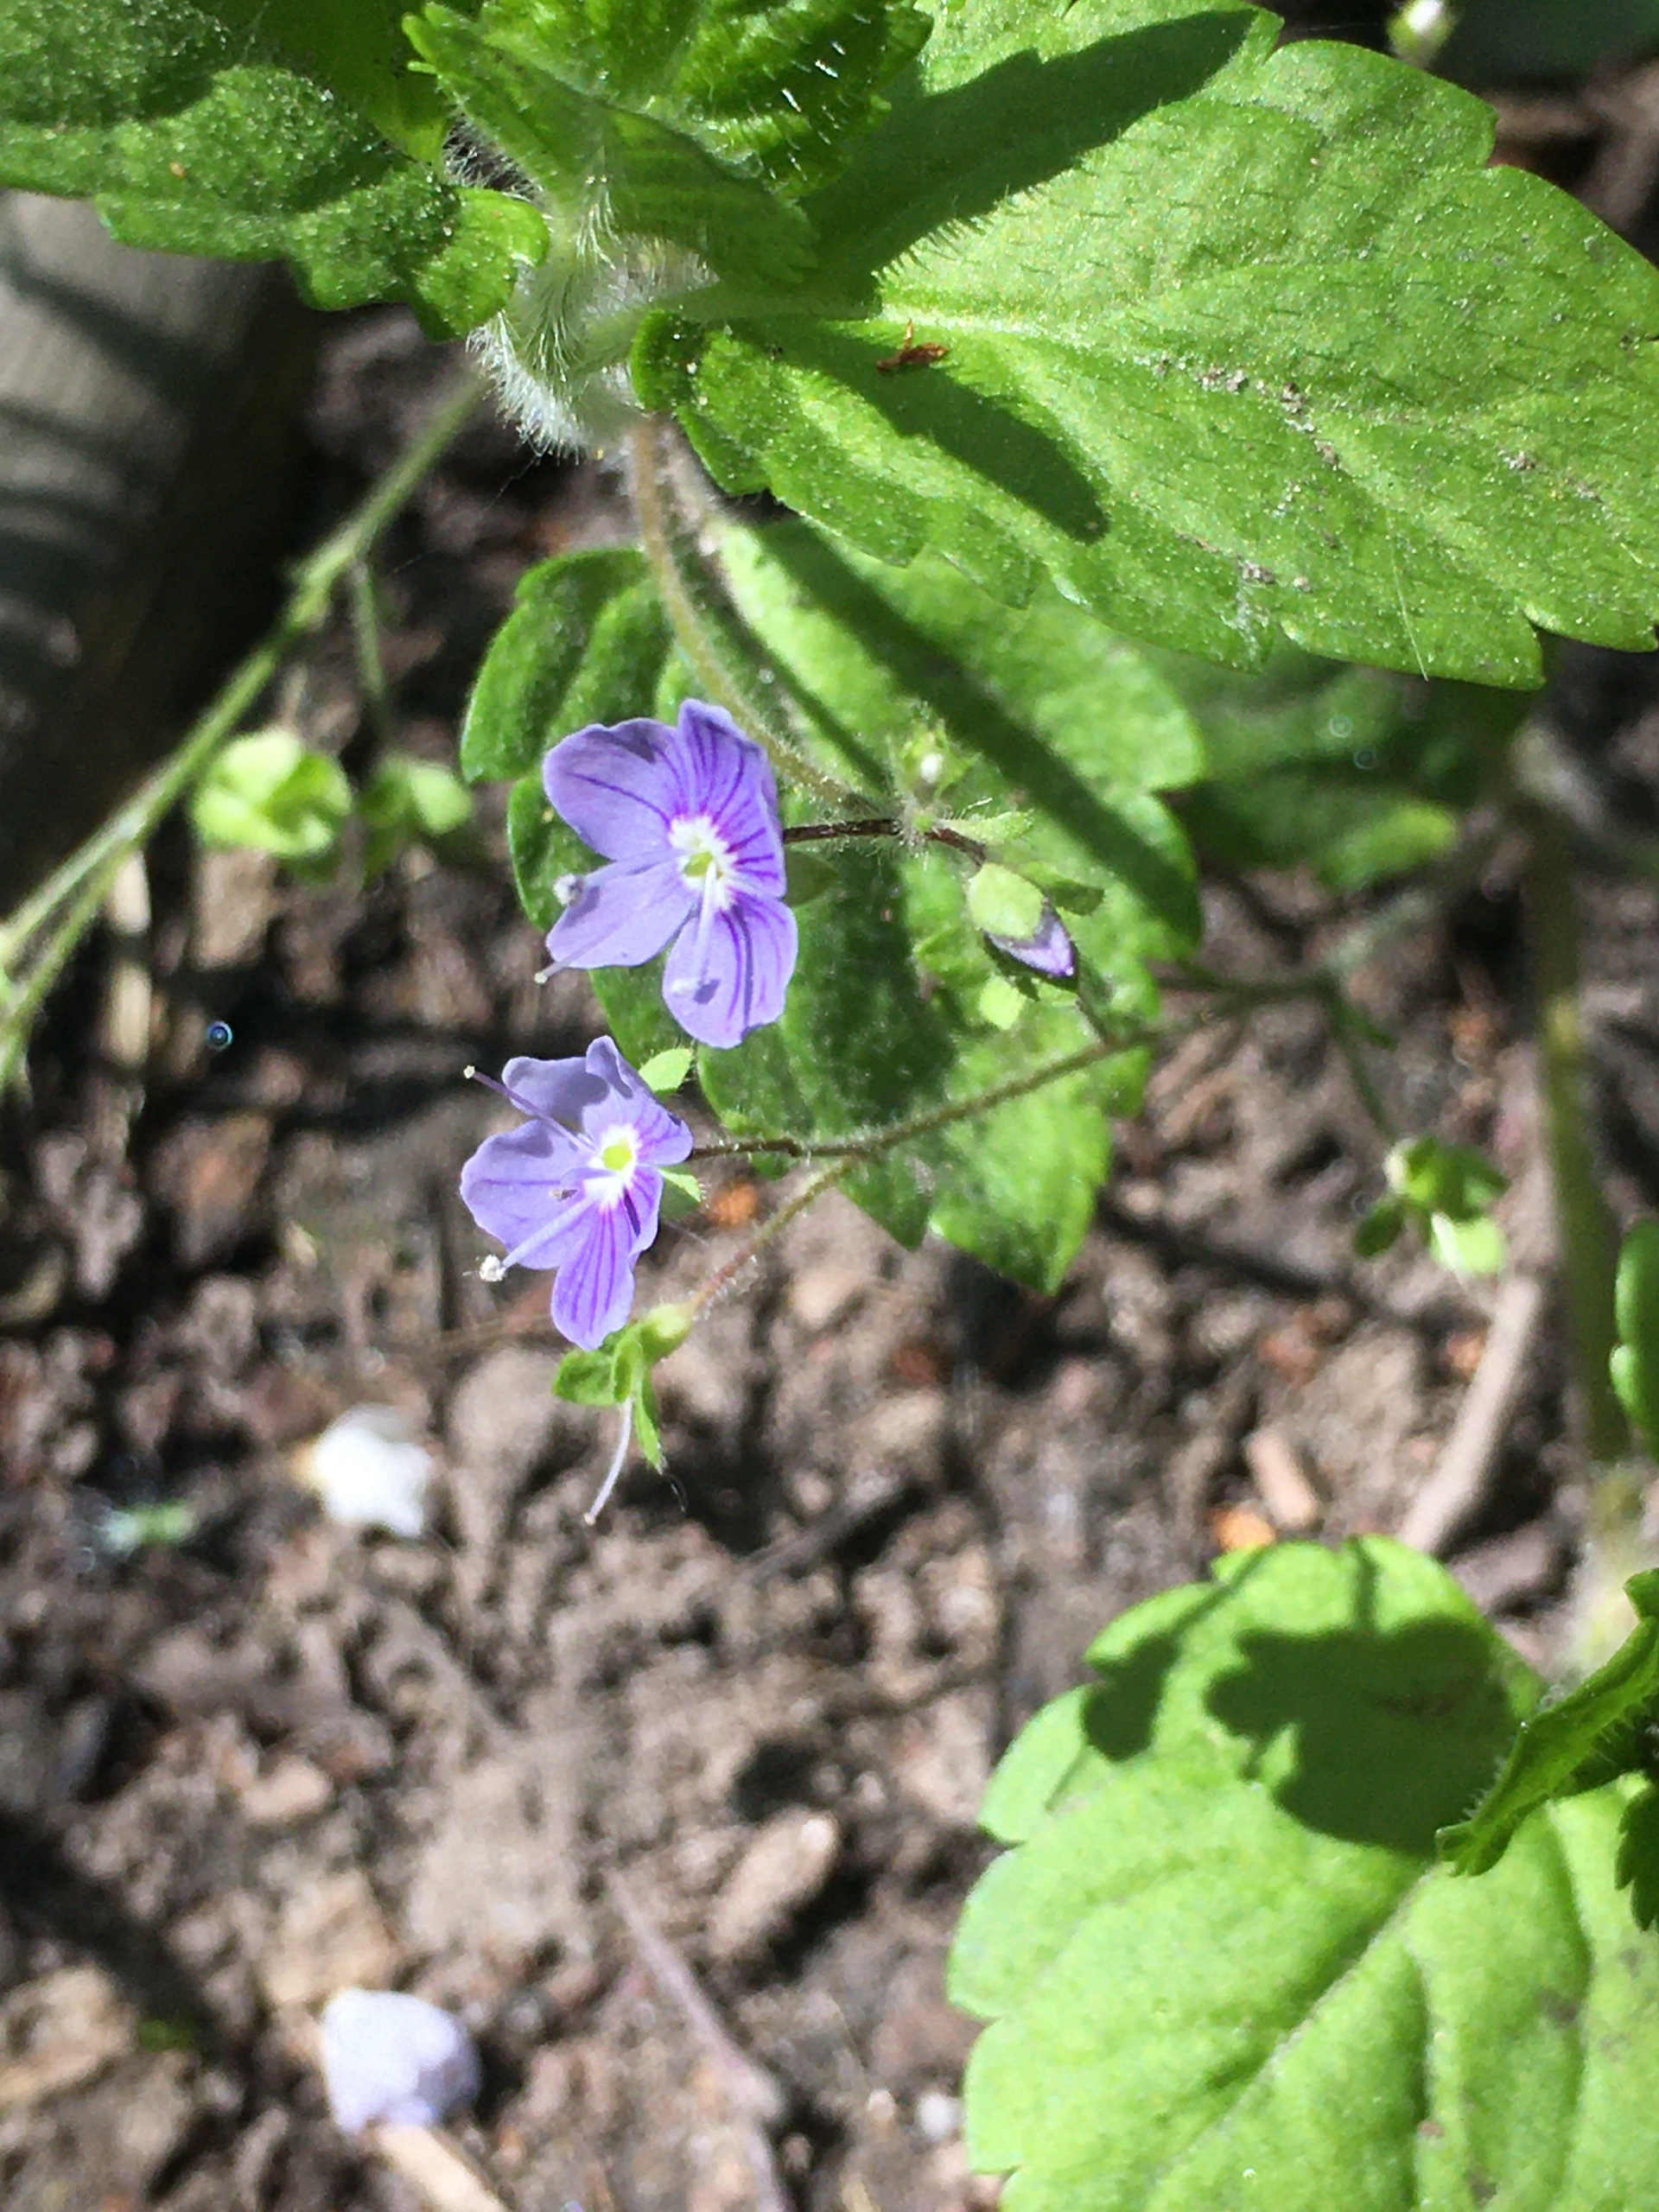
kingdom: Plantae
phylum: Tracheophyta
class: Magnoliopsida
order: Lamiales
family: Plantaginaceae
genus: Veronica
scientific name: Veronica montana
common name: Bjerg-ærenpris
